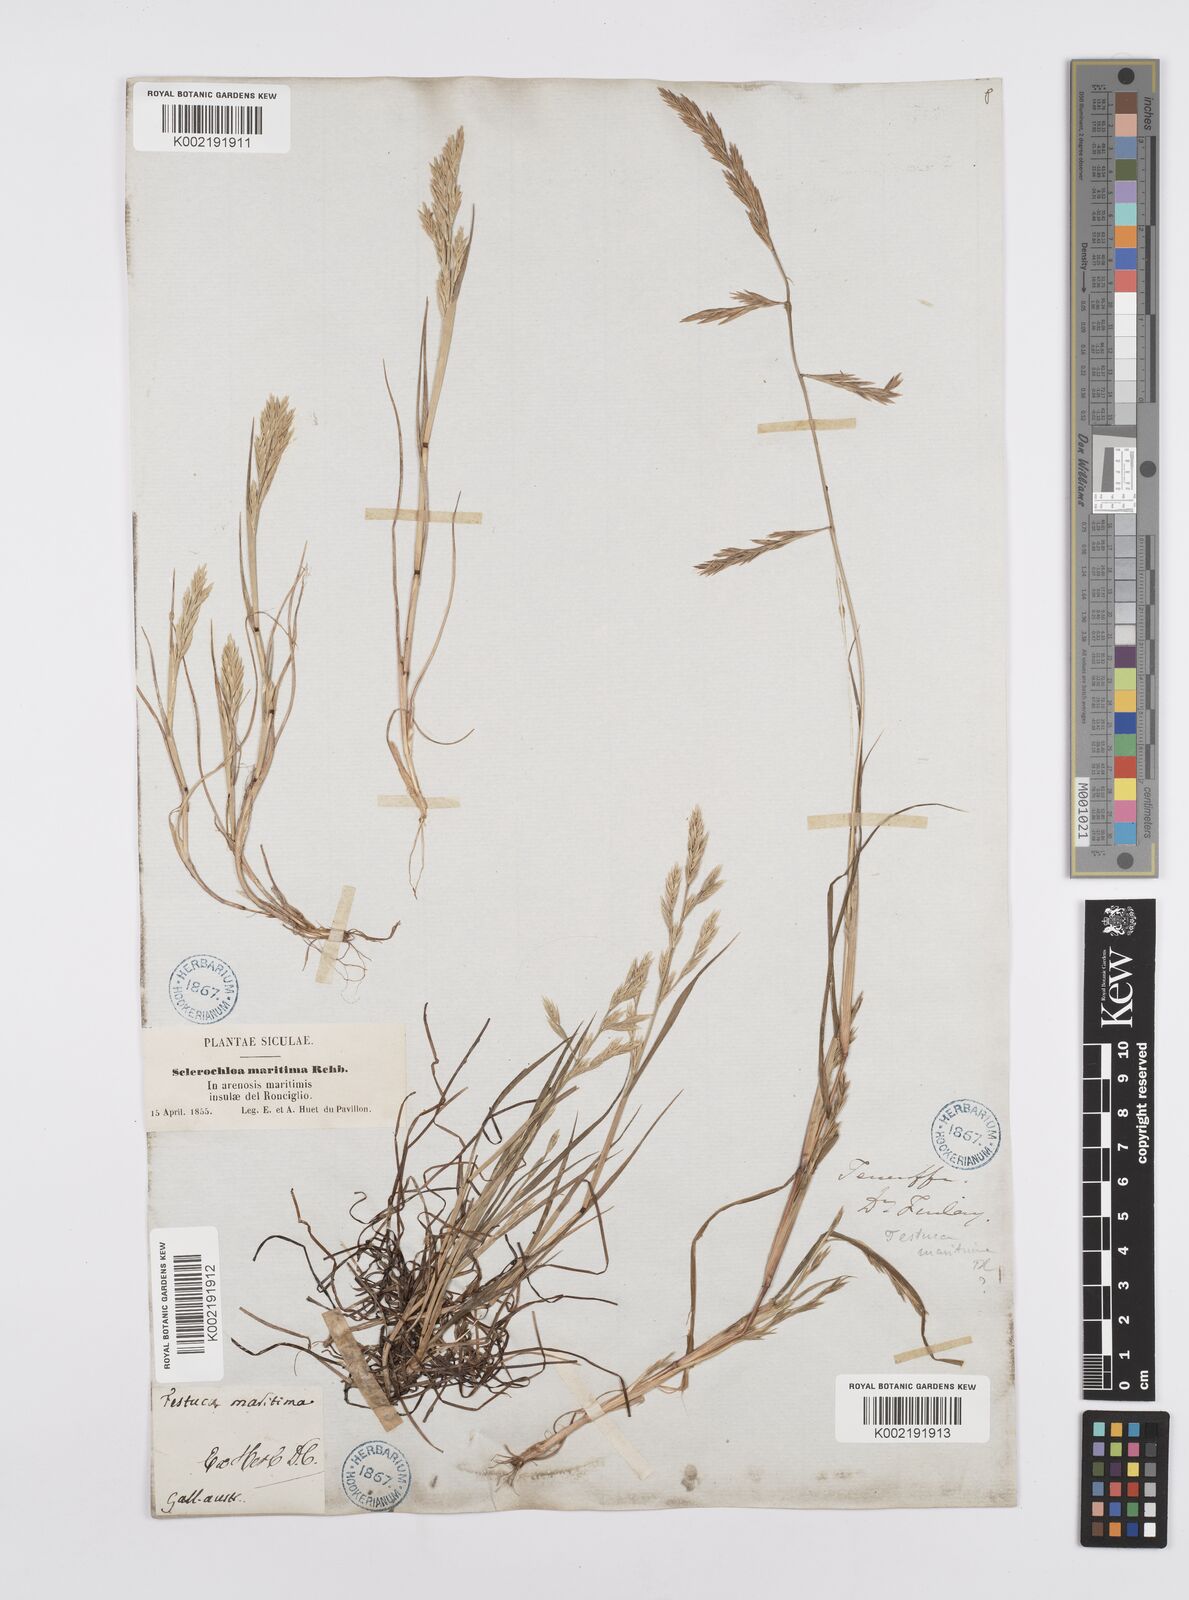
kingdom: Plantae
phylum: Tracheophyta
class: Liliopsida
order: Poales
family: Poaceae
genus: Cutandia
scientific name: Cutandia maritima
